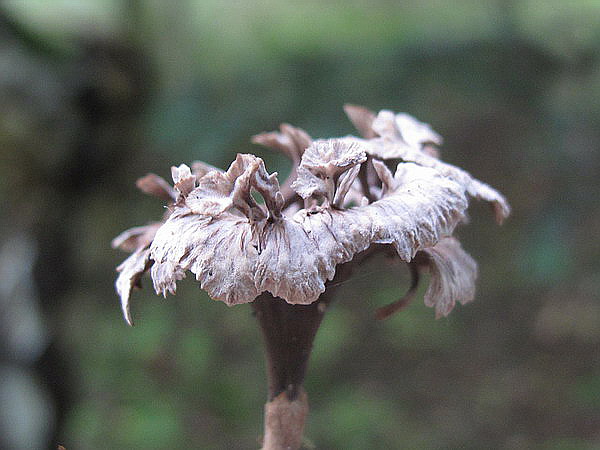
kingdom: Fungi
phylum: Basidiomycota
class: Agaricomycetes
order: Thelephorales
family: Thelephoraceae
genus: Thelephora
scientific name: Thelephora caryophyllea
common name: tragt-frynsesvamp
